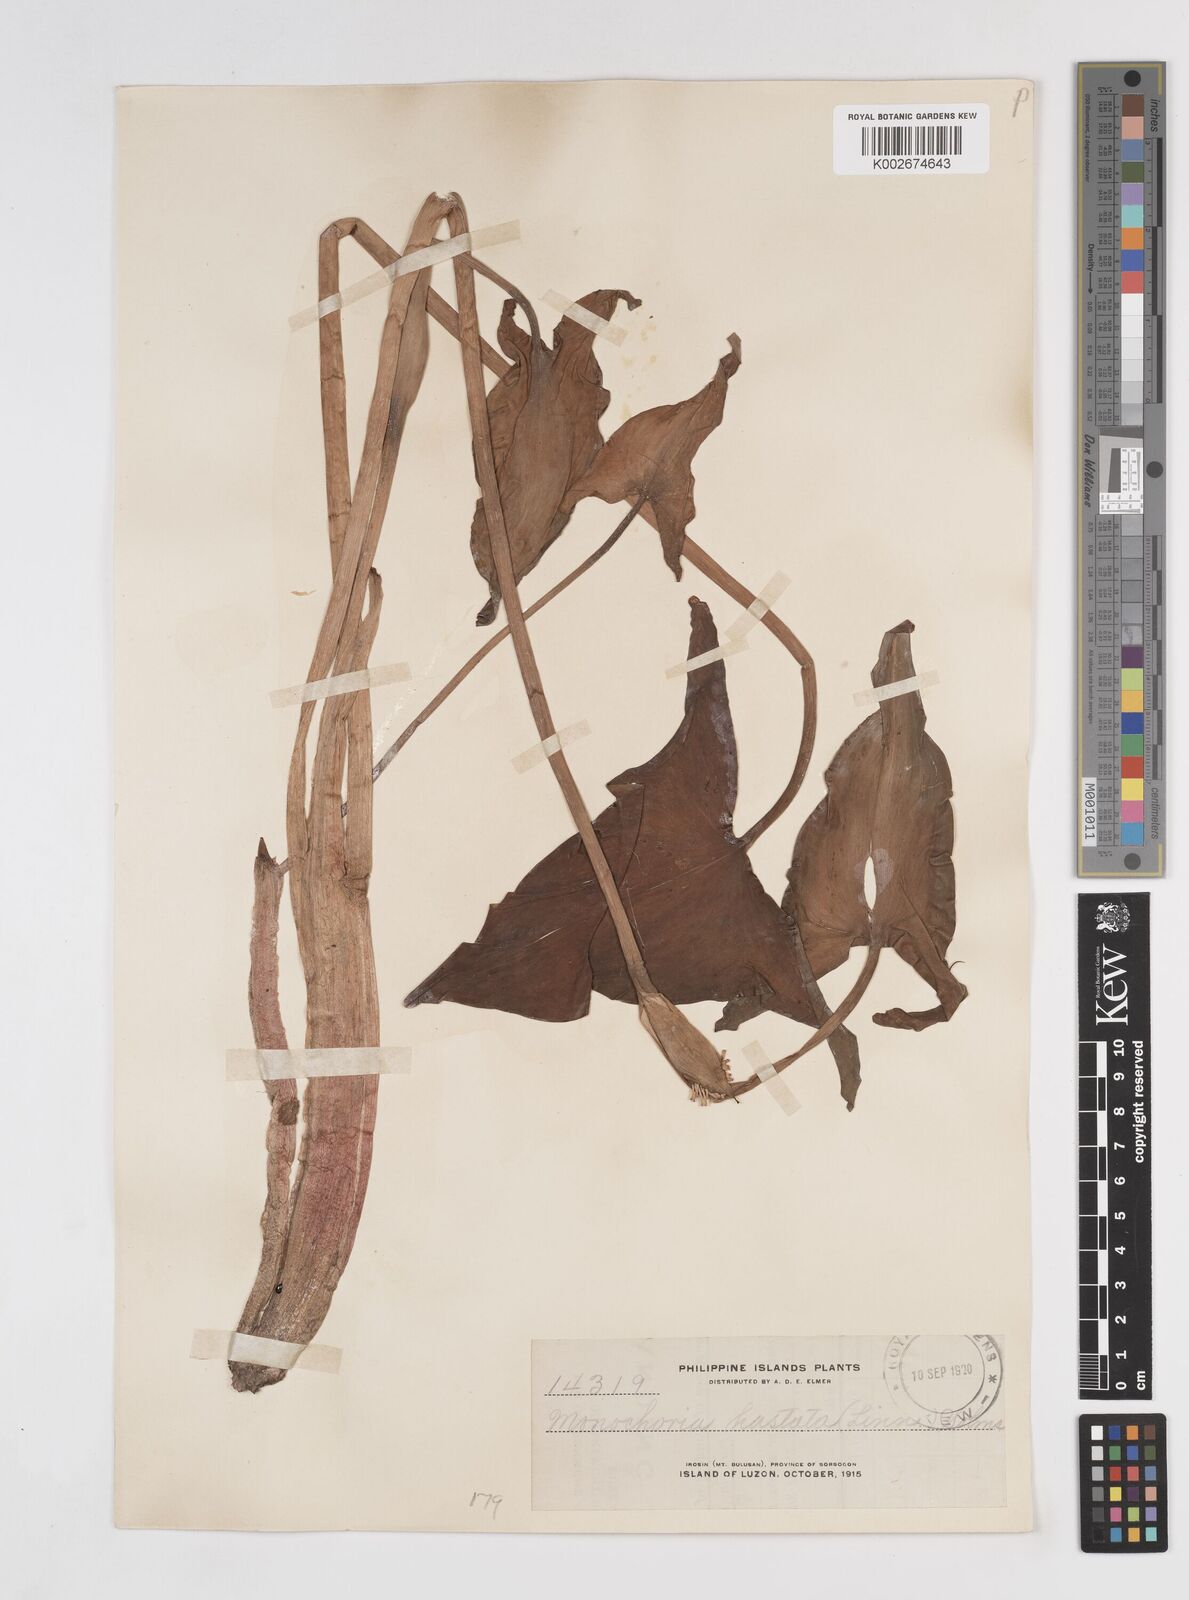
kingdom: Plantae
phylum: Tracheophyta
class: Liliopsida
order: Commelinales
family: Pontederiaceae
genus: Pontederia
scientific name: Pontederia hastata
